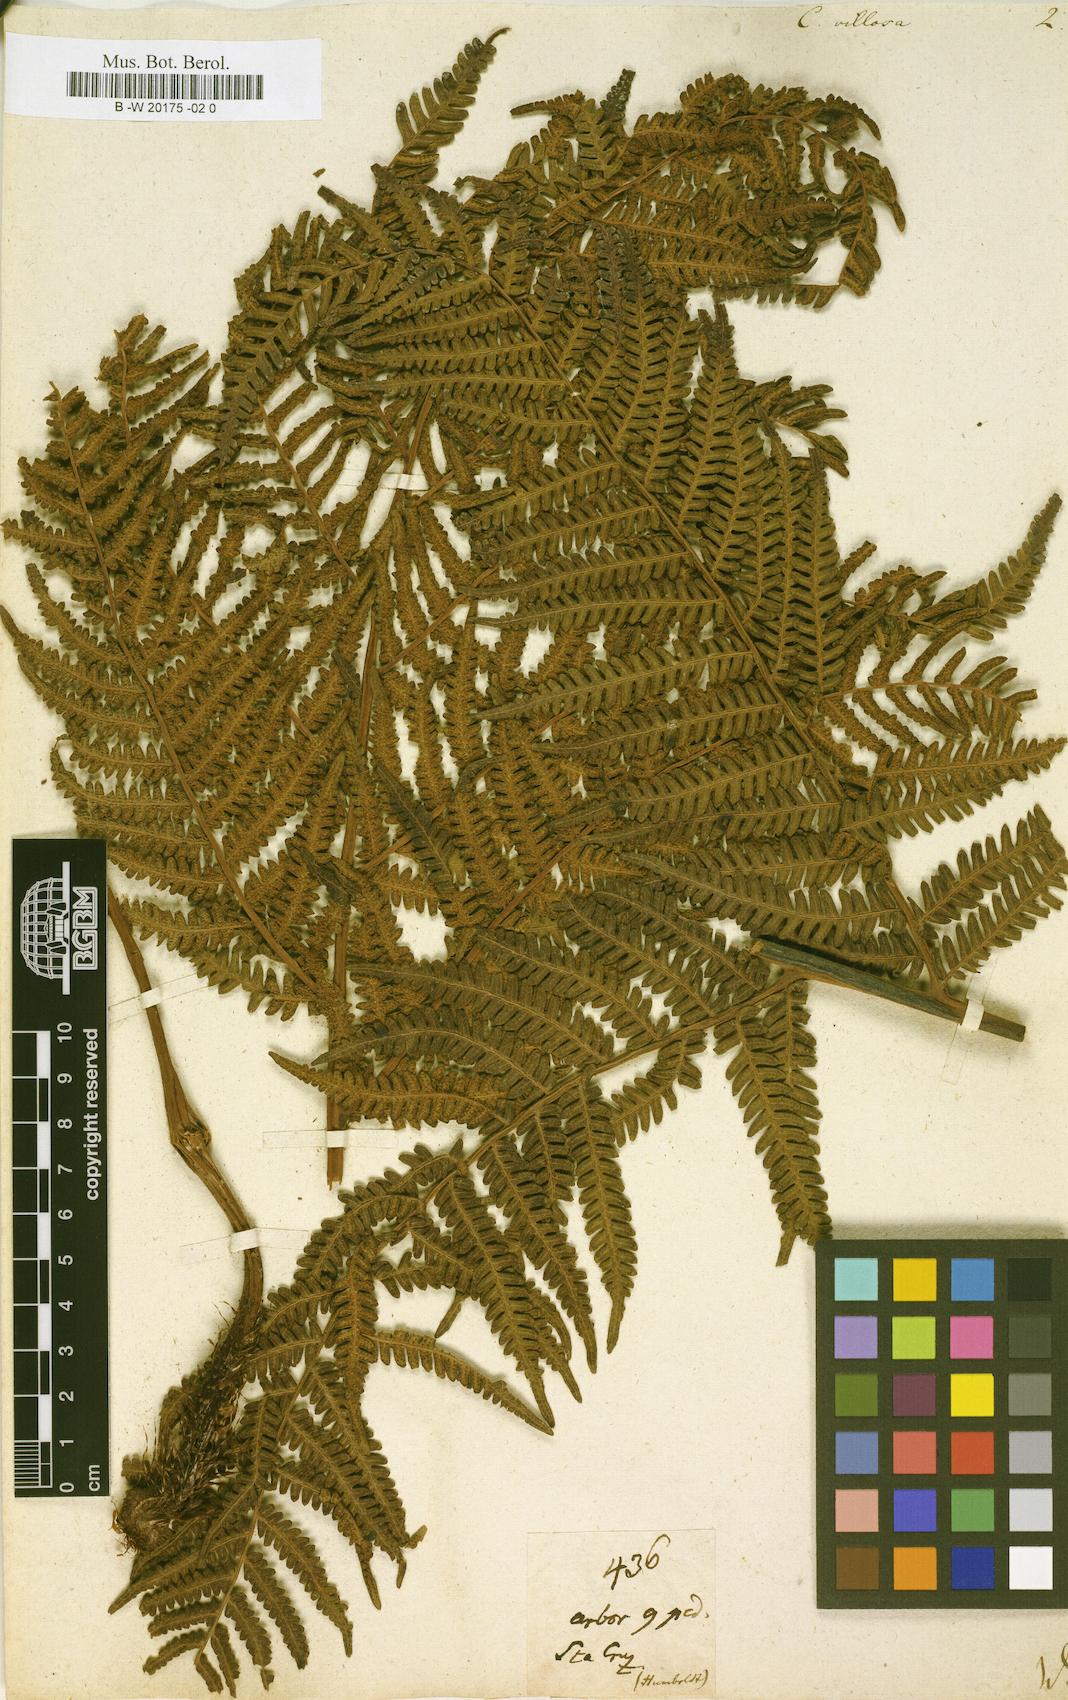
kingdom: Plantae
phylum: Tracheophyta
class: Polypodiopsida
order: Cyatheales
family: Cyatheaceae
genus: Cyathea
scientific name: Cyathea villosa
